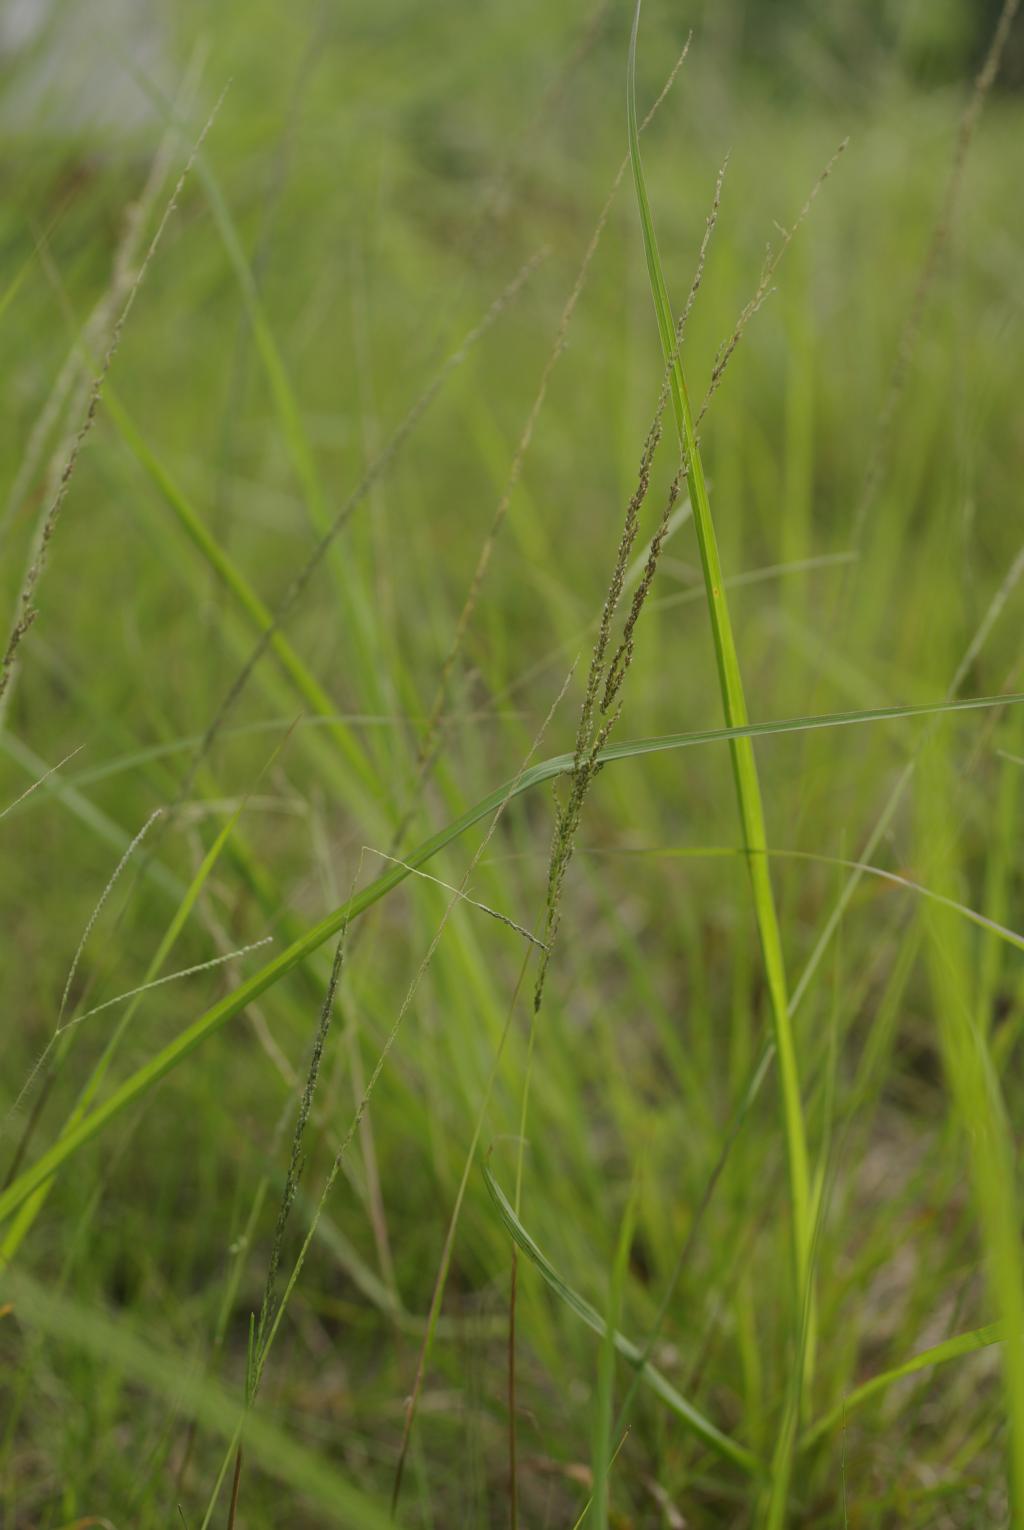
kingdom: Plantae
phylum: Tracheophyta
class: Liliopsida
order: Poales
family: Poaceae
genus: Sporobolus
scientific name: Sporobolus fertilis
